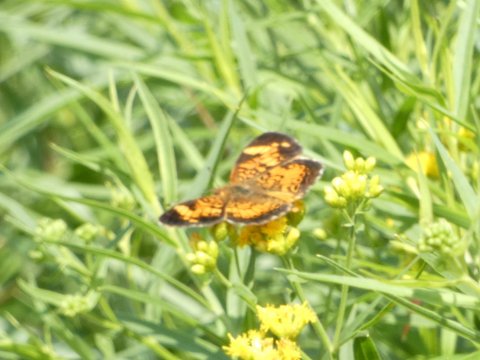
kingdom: Animalia
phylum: Arthropoda
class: Insecta
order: Lepidoptera
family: Nymphalidae
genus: Phyciodes
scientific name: Phyciodes tharos
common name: Pearl Crescent
